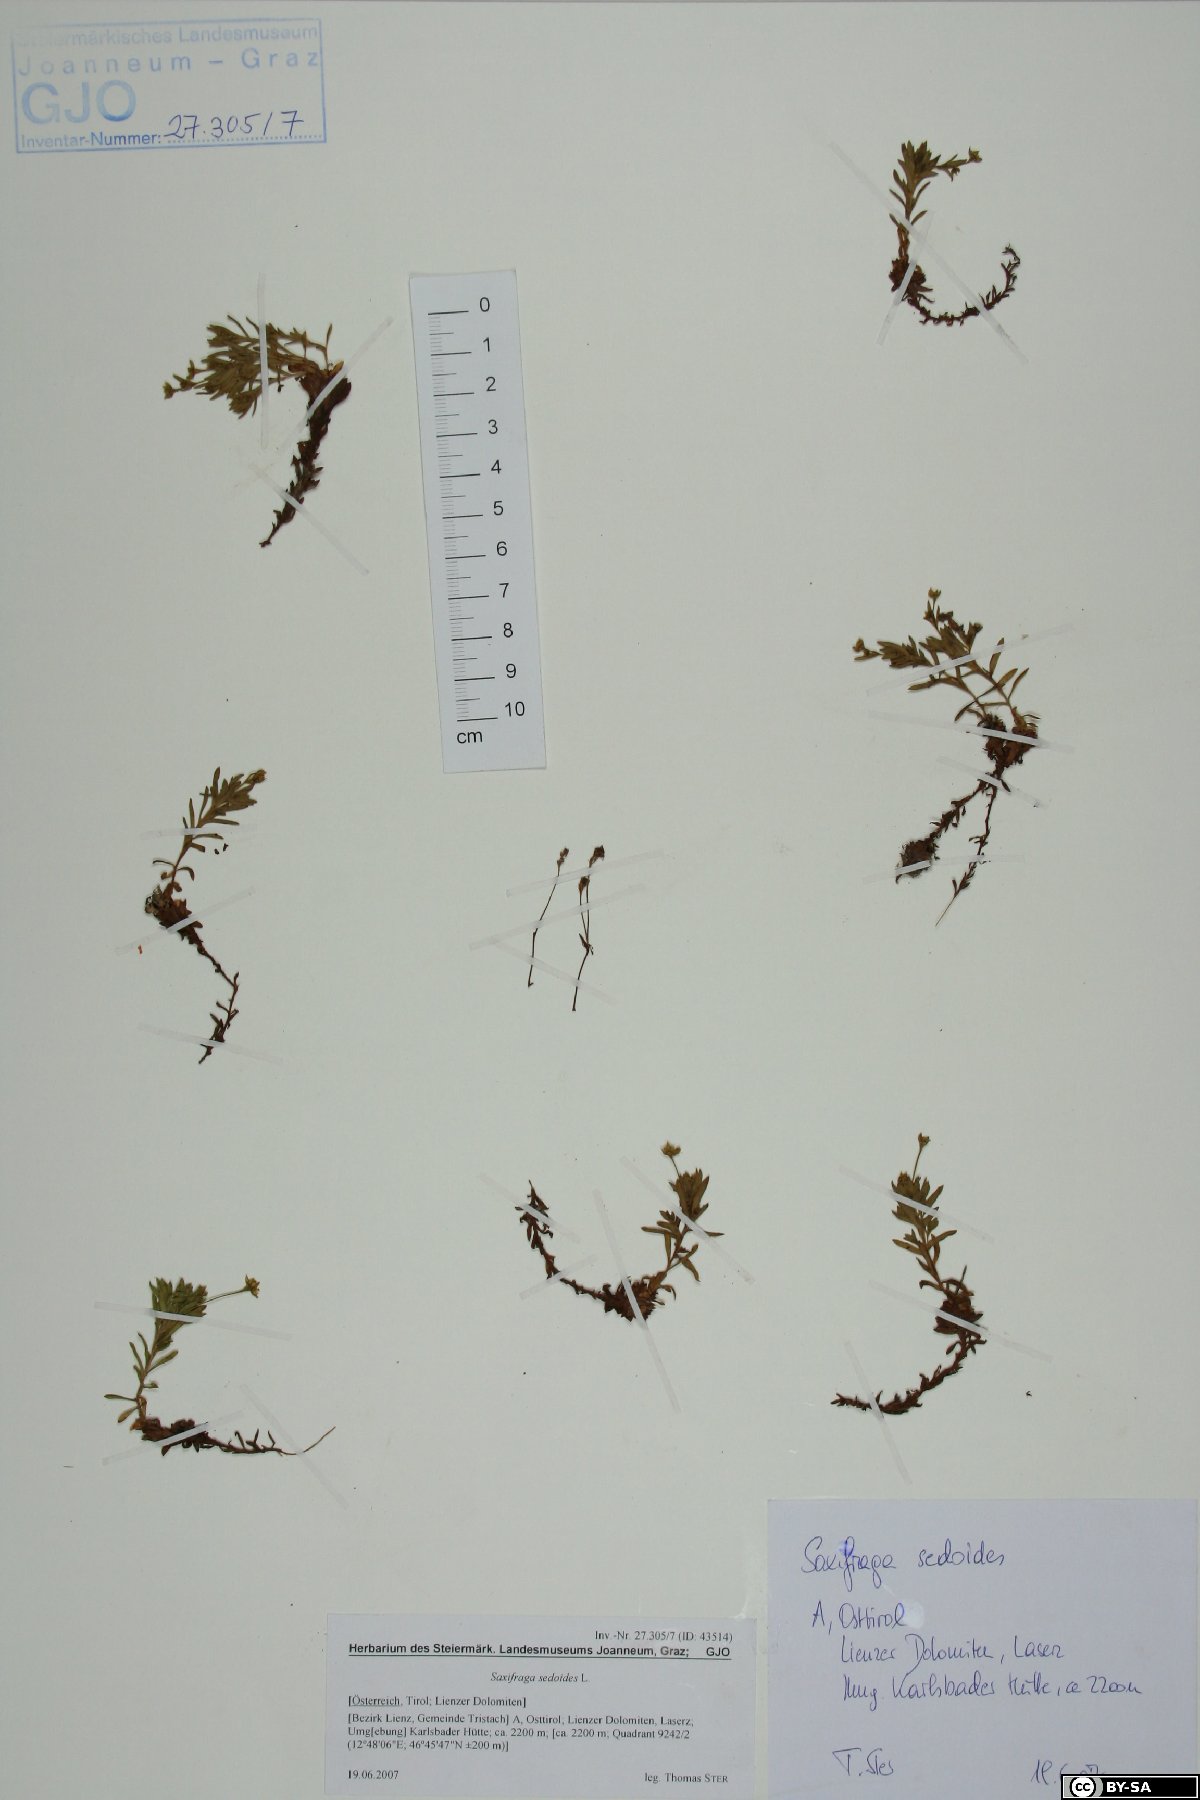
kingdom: Plantae
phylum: Tracheophyta
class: Magnoliopsida
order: Saxifragales
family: Saxifragaceae
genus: Saxifraga
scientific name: Saxifraga sedoides
